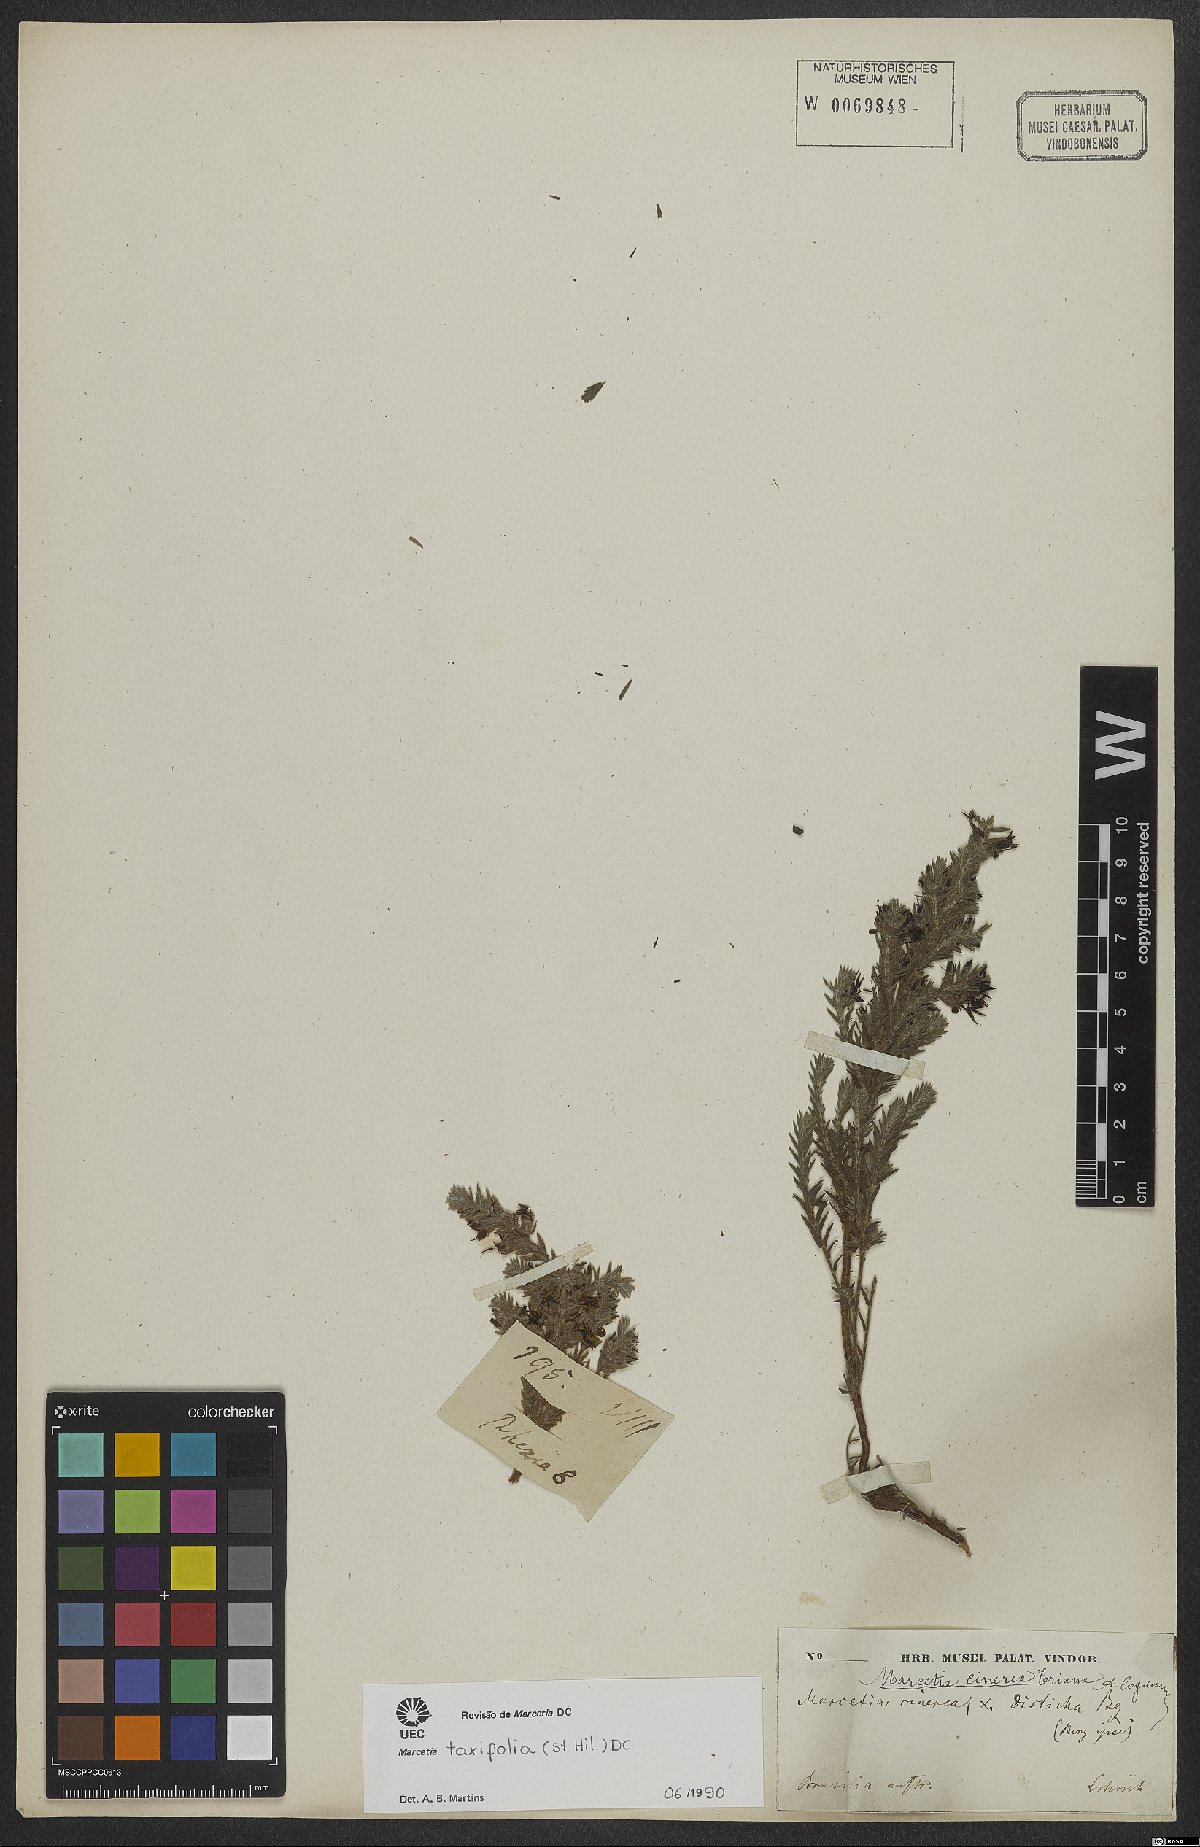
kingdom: Plantae
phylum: Tracheophyta
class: Magnoliopsida
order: Myrtales
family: Melastomataceae
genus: Marcetia
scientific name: Marcetia taxifolia
